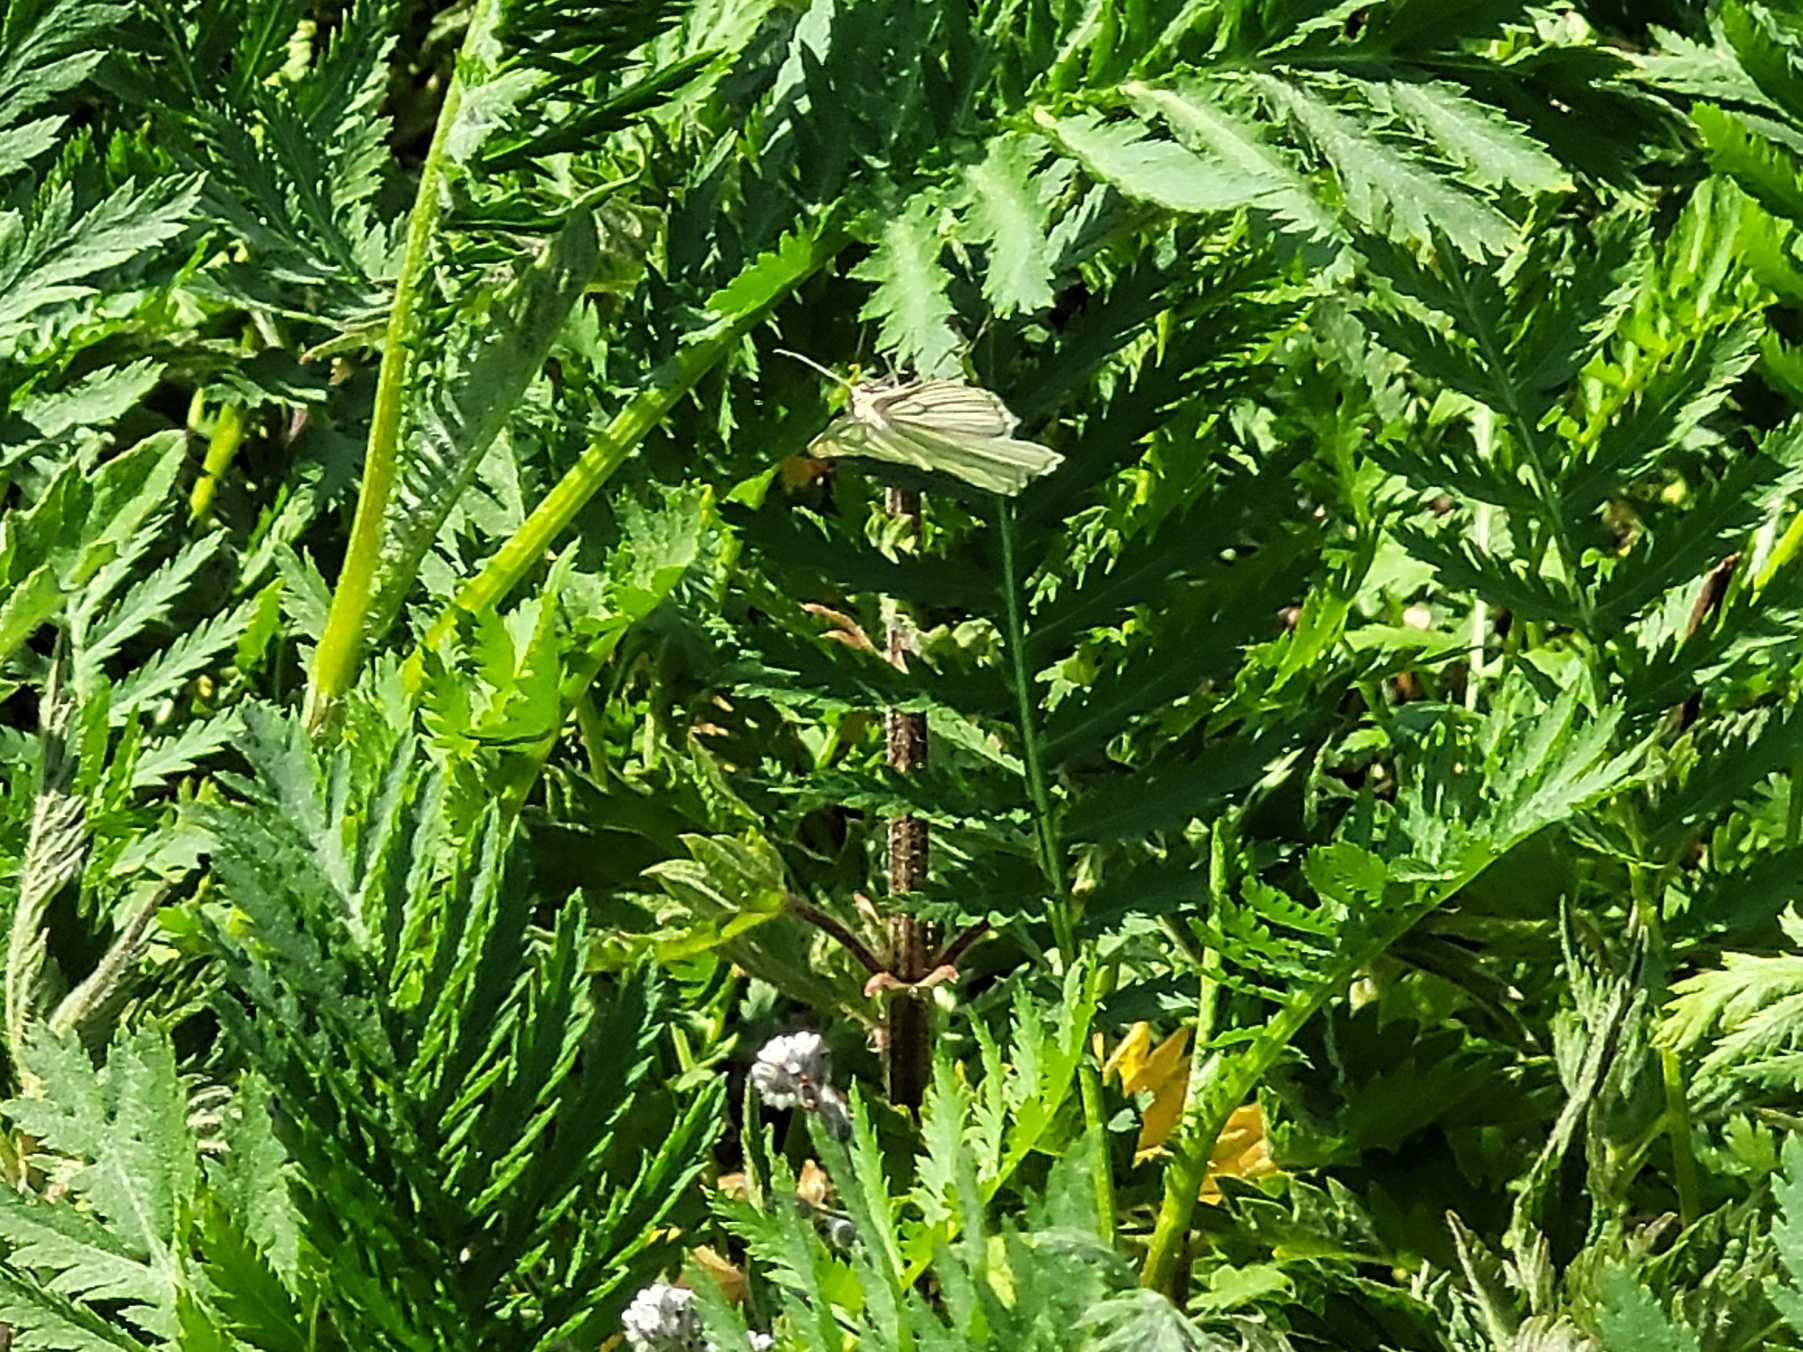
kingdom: Animalia
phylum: Arthropoda
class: Insecta
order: Lepidoptera
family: Geometridae
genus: Siona
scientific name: Siona lineata
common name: Hvidvingemåler
